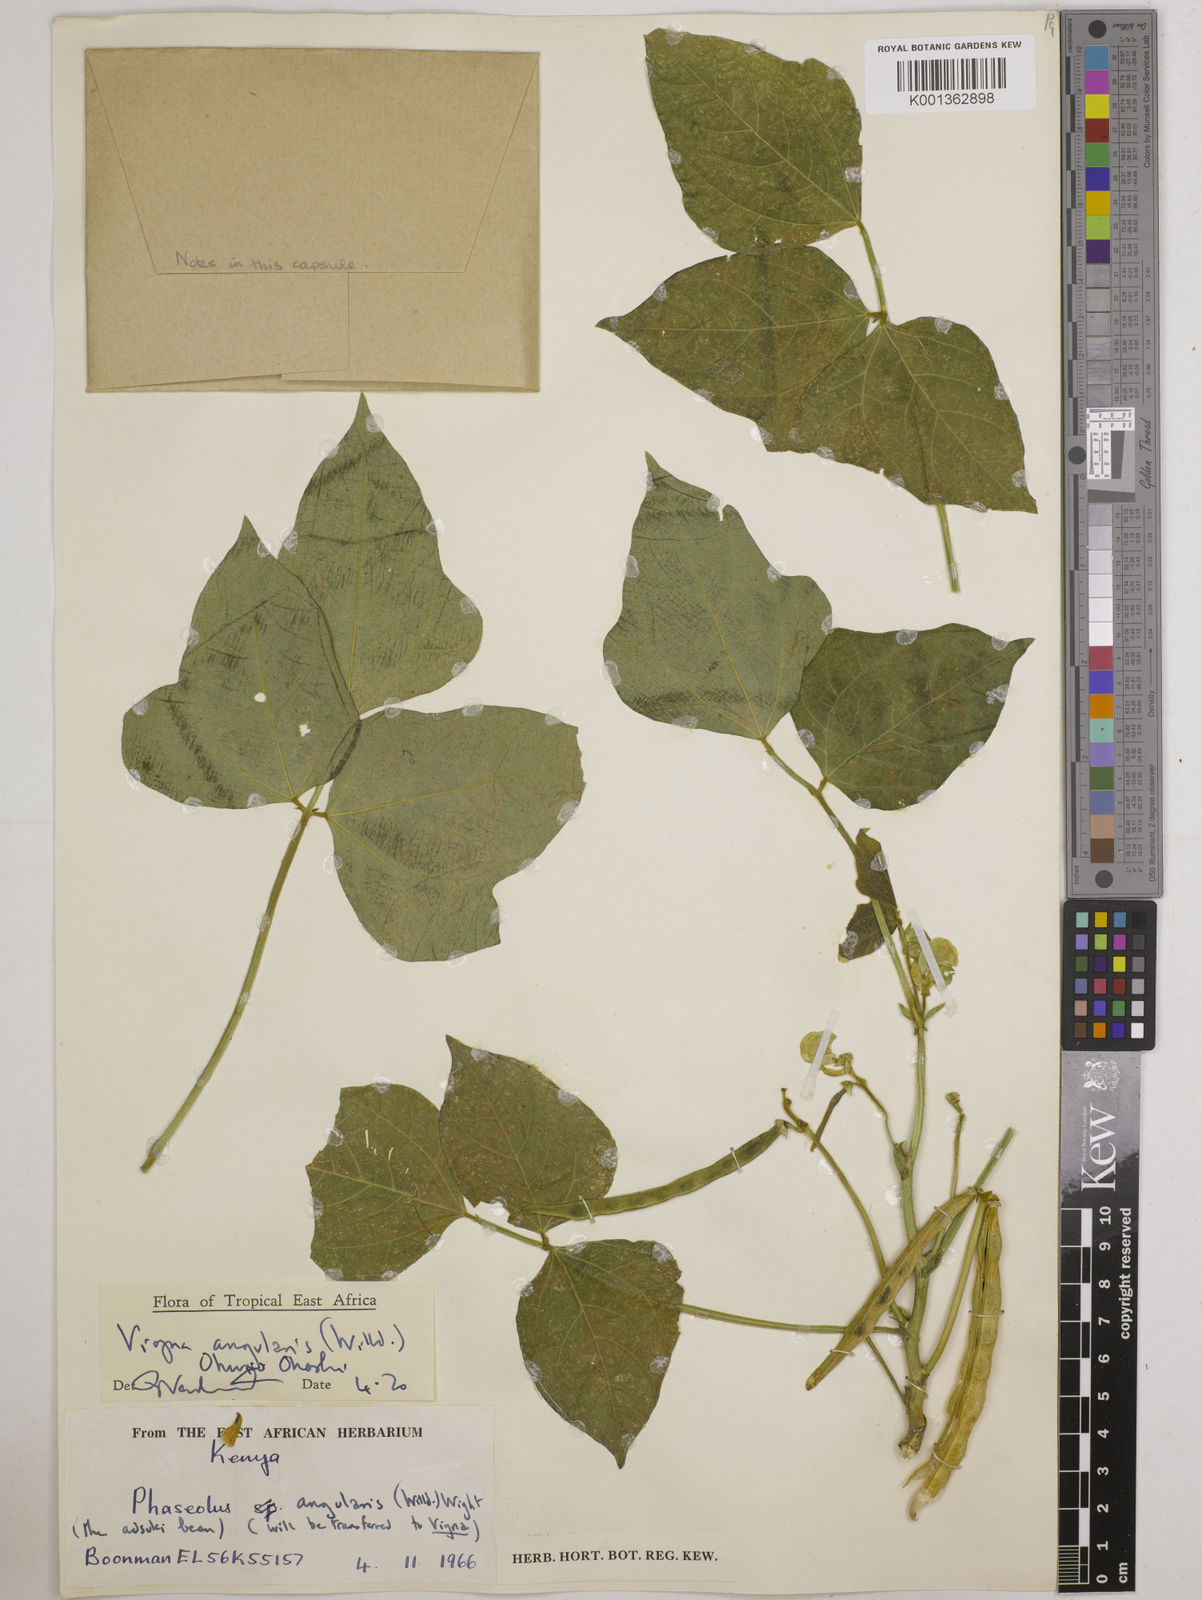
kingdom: Plantae
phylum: Tracheophyta
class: Magnoliopsida
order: Fabales
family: Fabaceae
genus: Vigna
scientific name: Vigna angularis
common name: Adzuki bean
